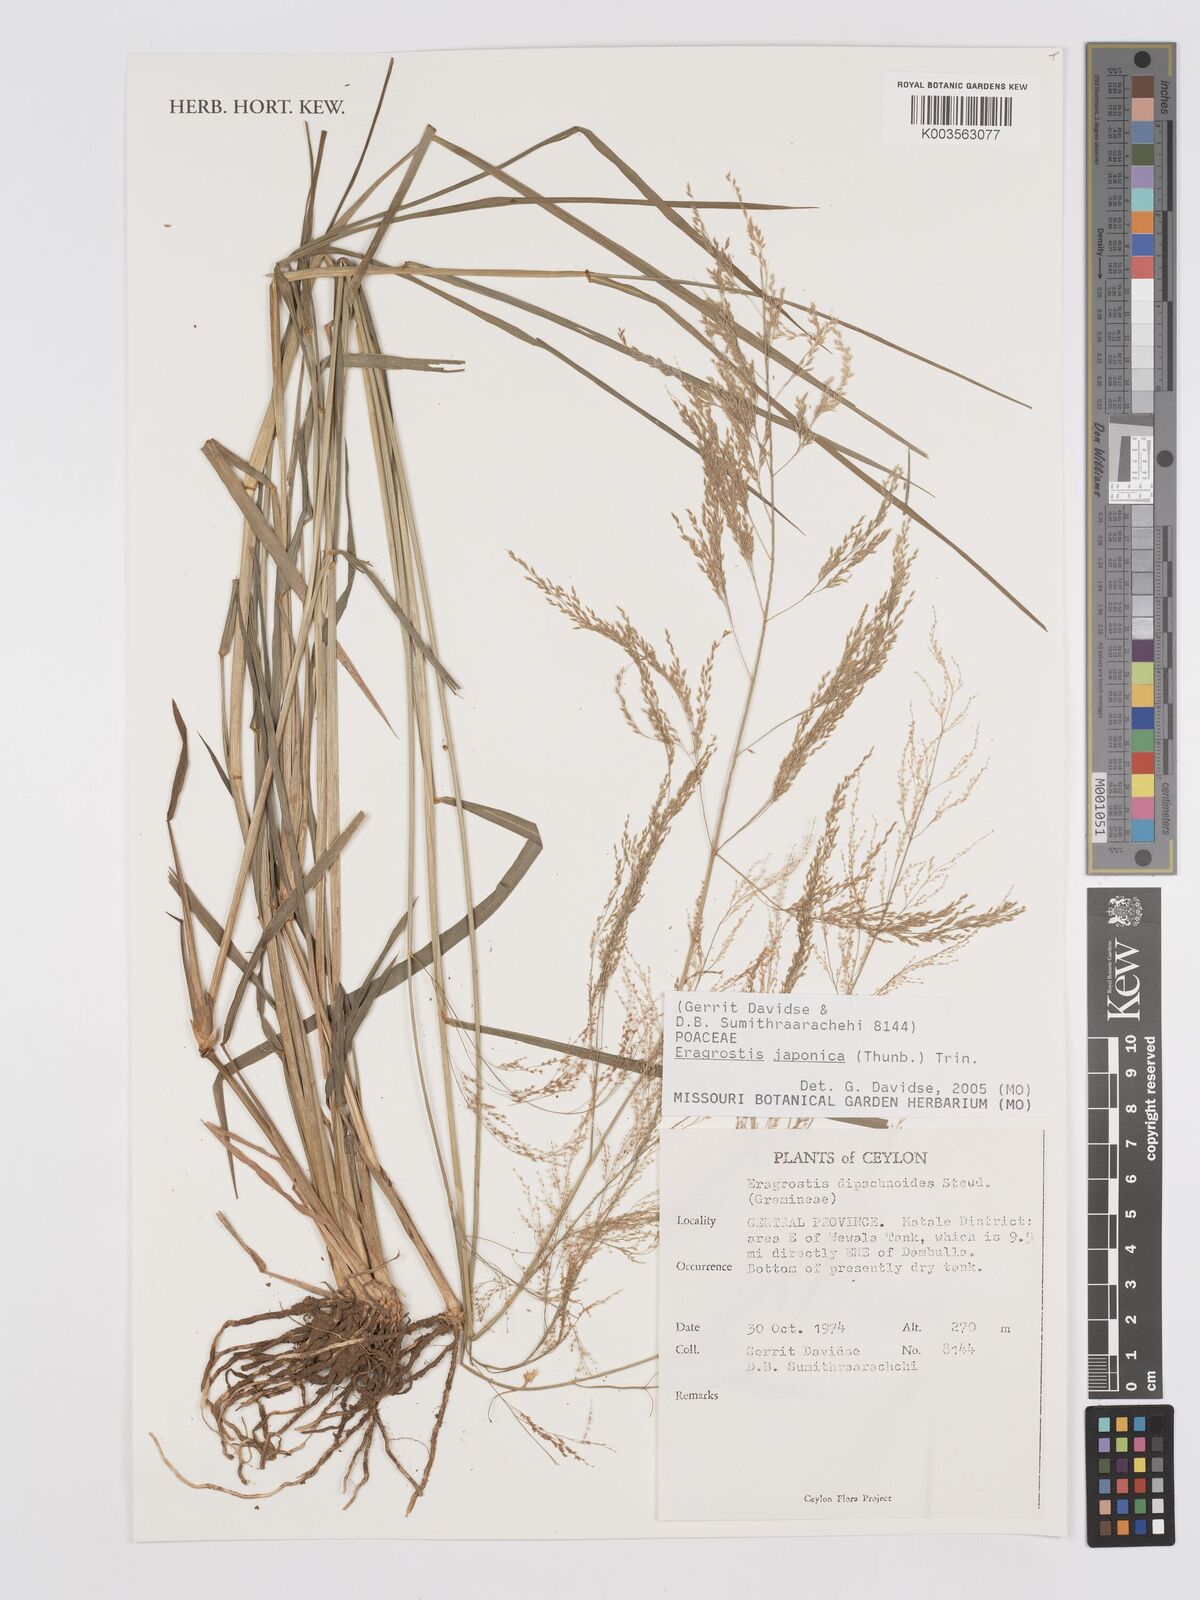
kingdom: Plantae
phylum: Tracheophyta
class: Liliopsida
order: Poales
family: Poaceae
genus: Eragrostis
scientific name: Eragrostis japonica
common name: Pond lovegrass
